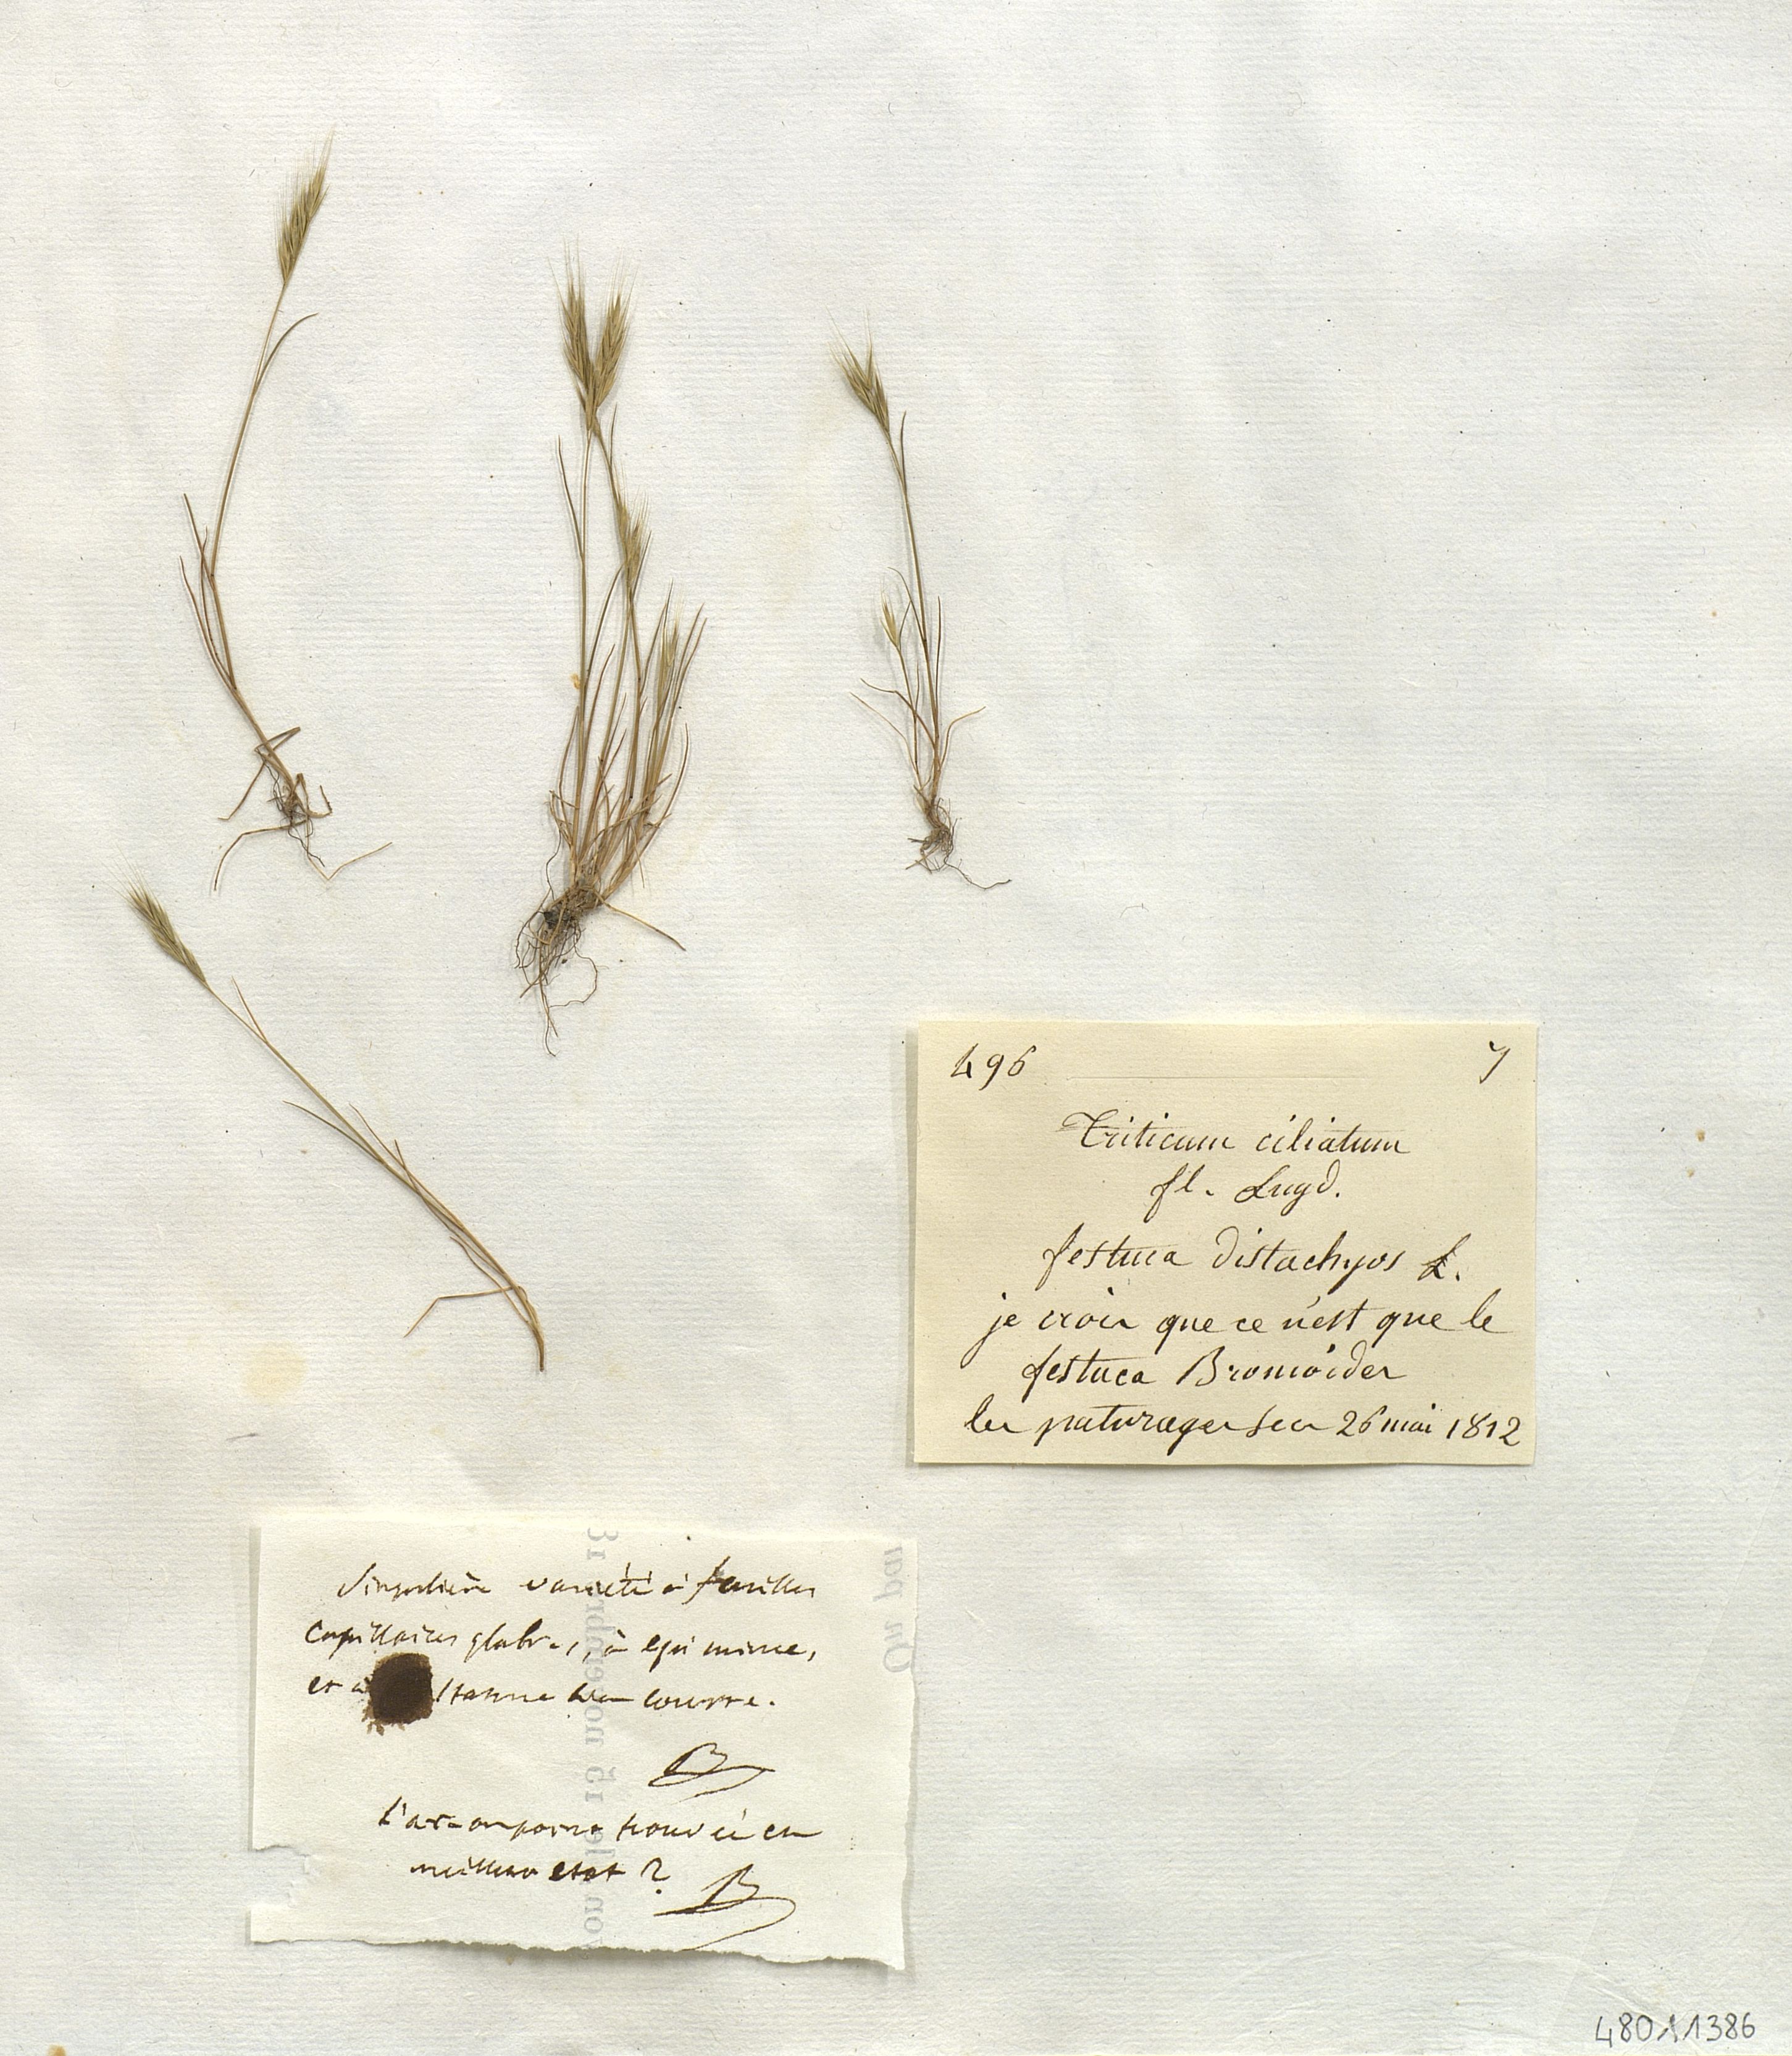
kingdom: Plantae
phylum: Tracheophyta
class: Liliopsida
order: Poales
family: Poaceae
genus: Brachypodium
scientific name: Brachypodium distachyon
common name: Stiff brome
